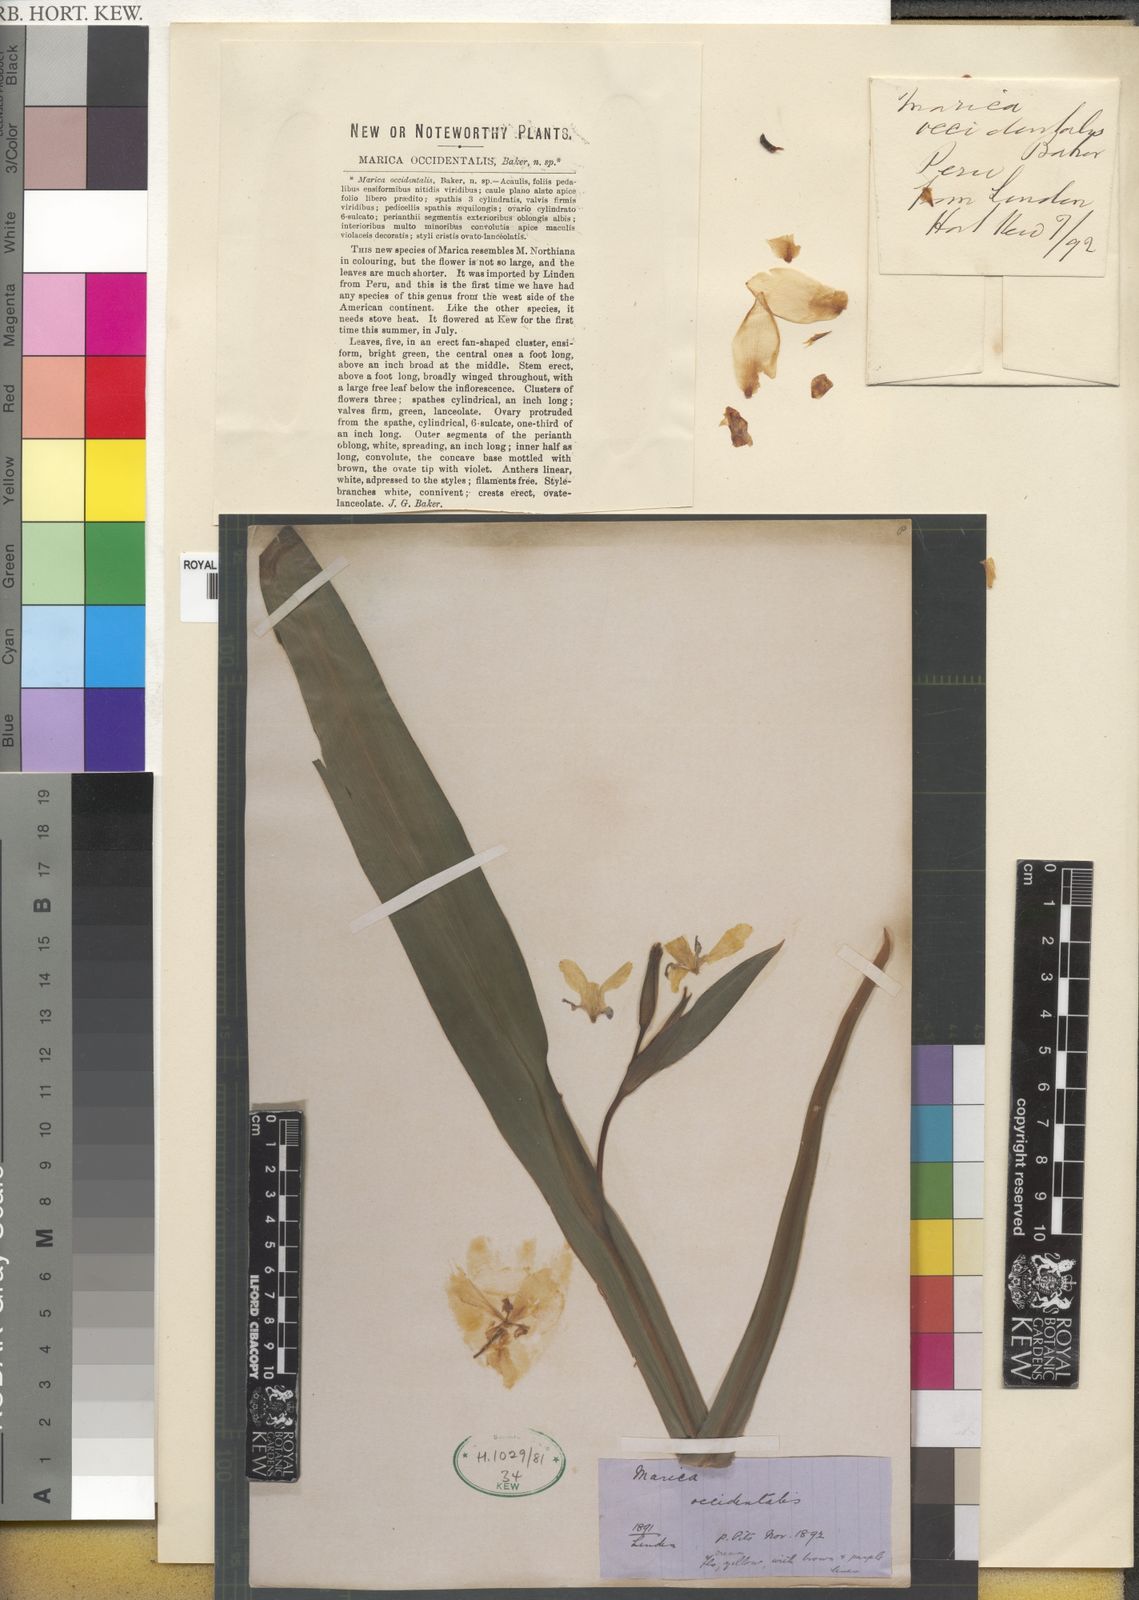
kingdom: Plantae
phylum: Tracheophyta
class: Liliopsida
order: Asparagales
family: Iridaceae
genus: Trimezia
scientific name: Trimezia humilis
